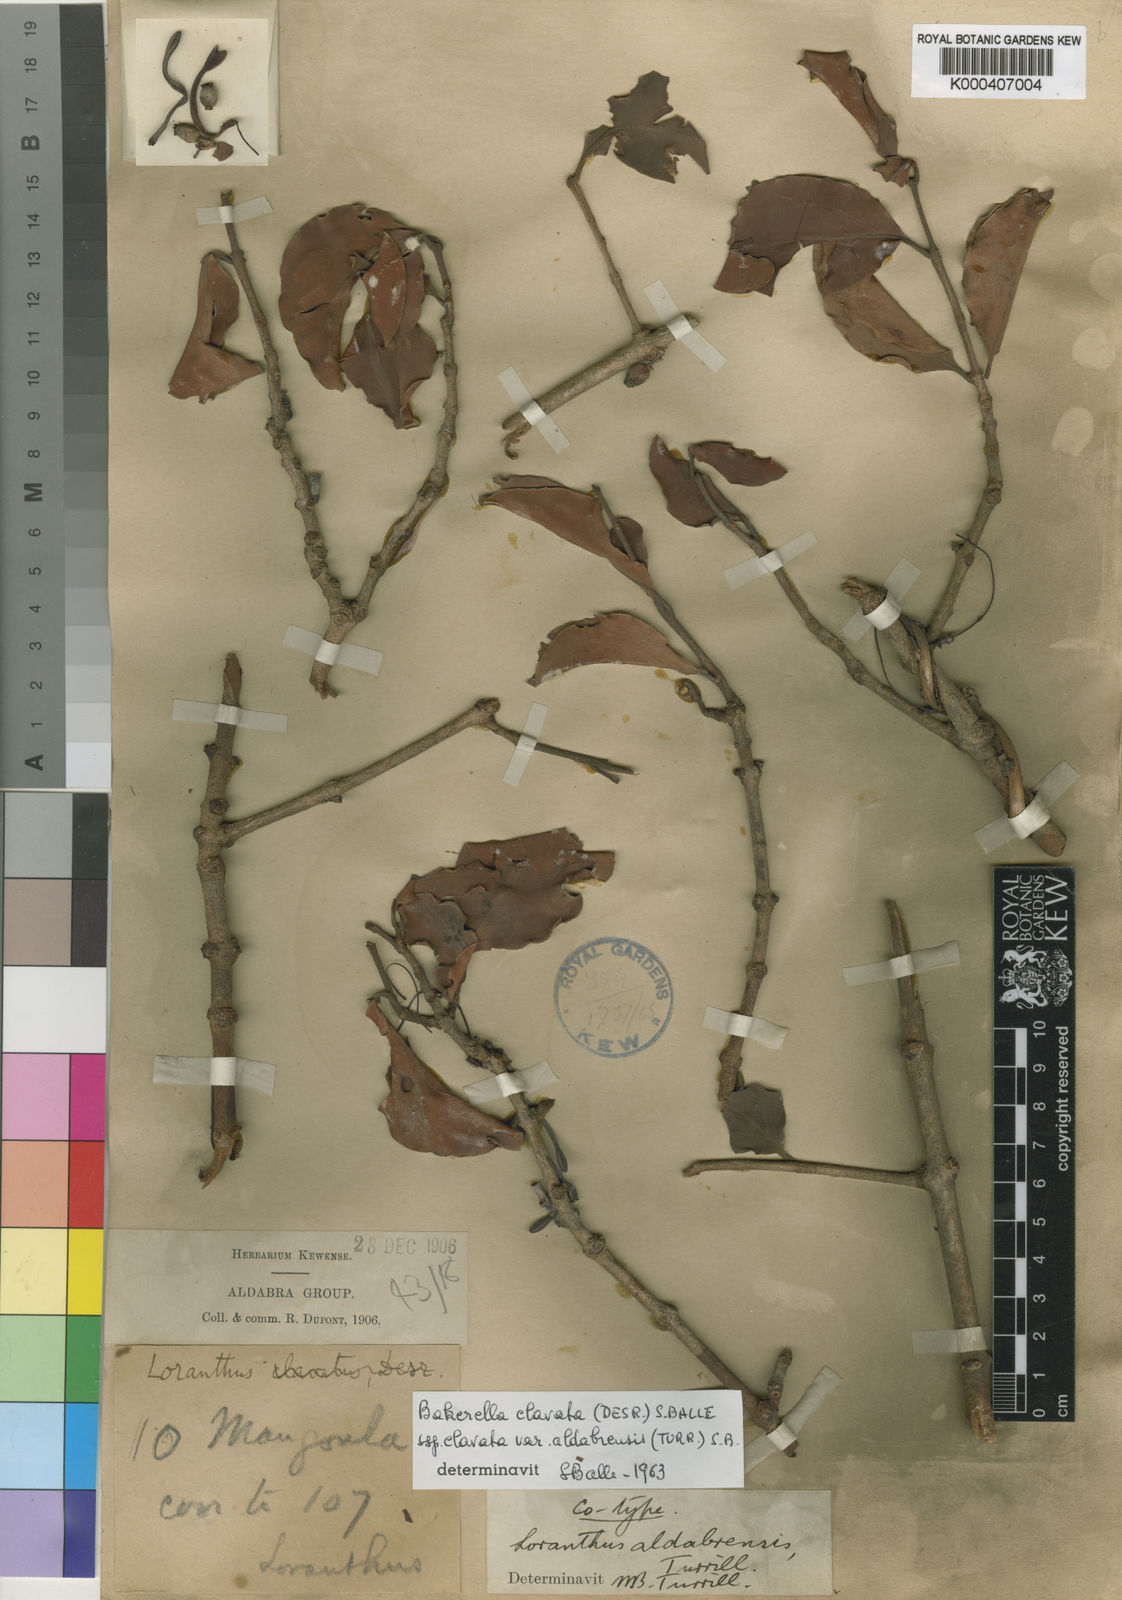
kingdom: Plantae
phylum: Tracheophyta
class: Magnoliopsida
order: Santalales
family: Loranthaceae
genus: Bakerella
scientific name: Bakerella clavata
